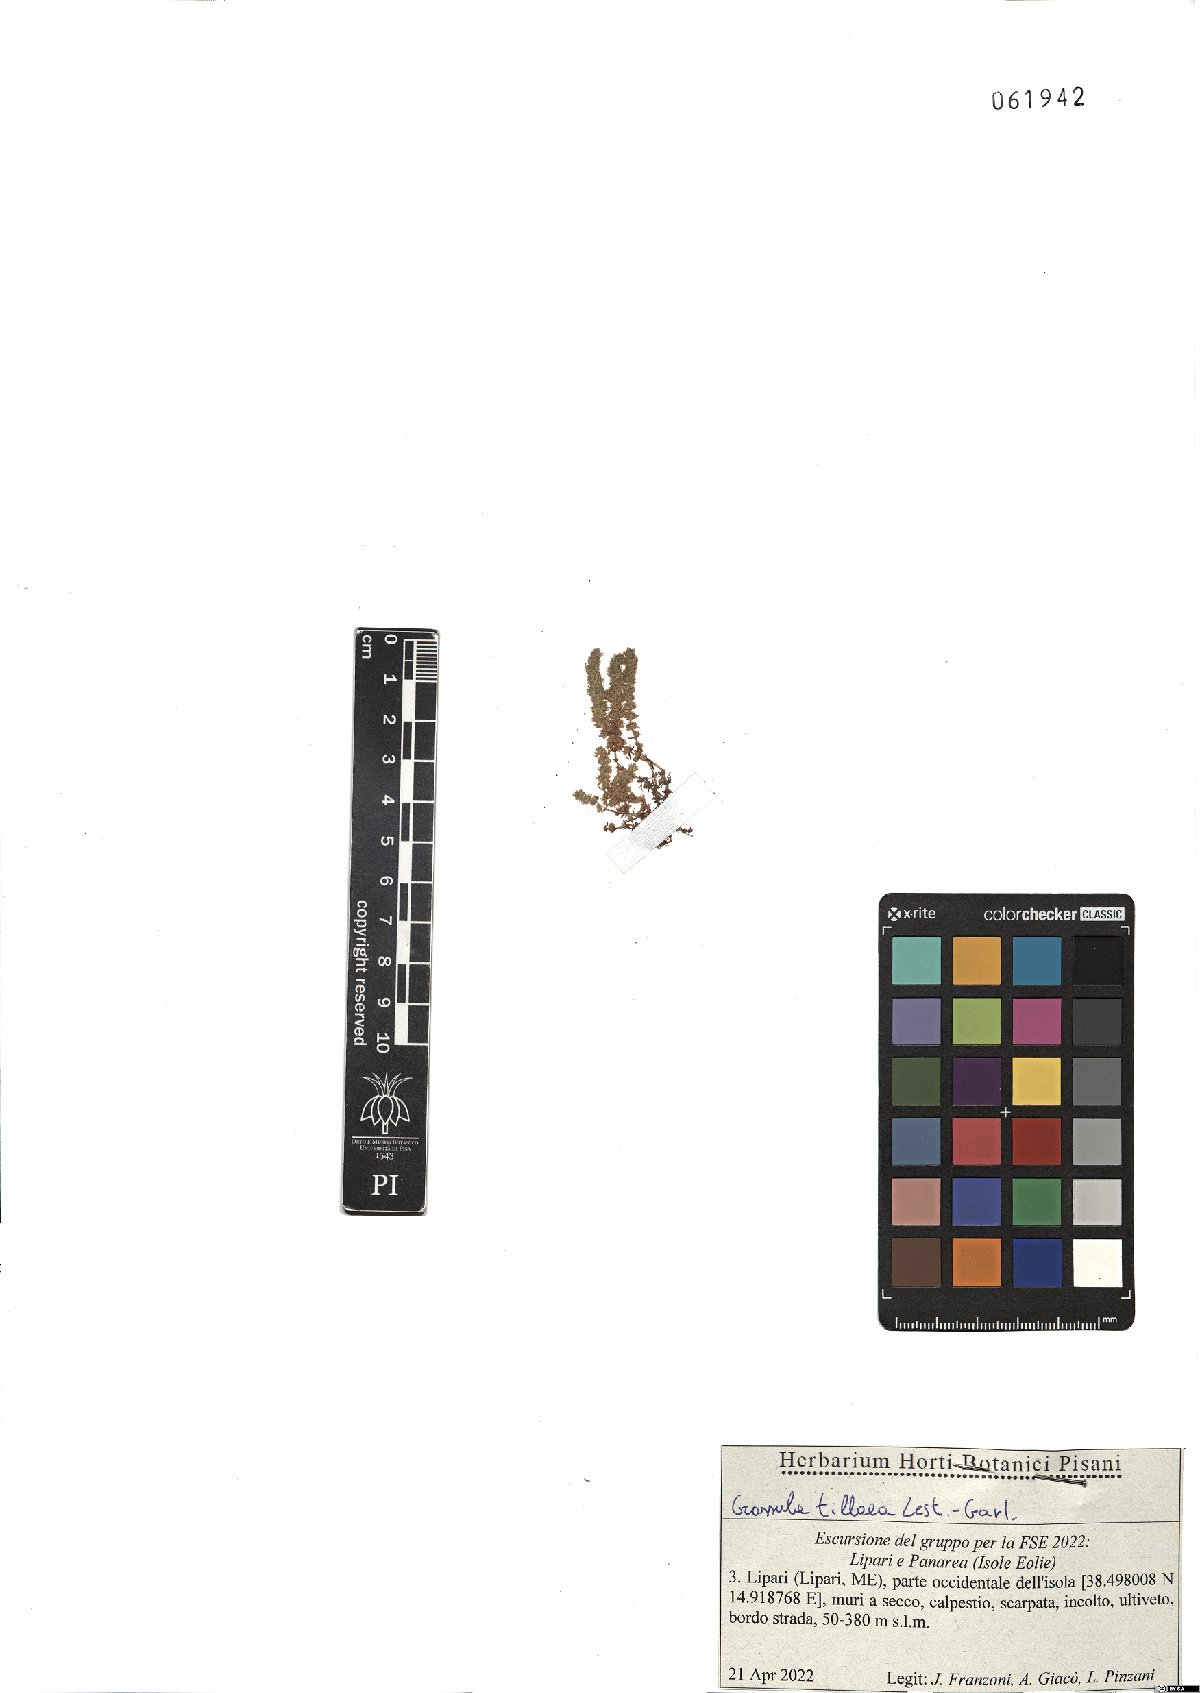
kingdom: Plantae
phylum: Tracheophyta
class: Magnoliopsida
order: Saxifragales
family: Crassulaceae
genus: Crassula
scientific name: Crassula tillaea
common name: Mossy stonecrop
